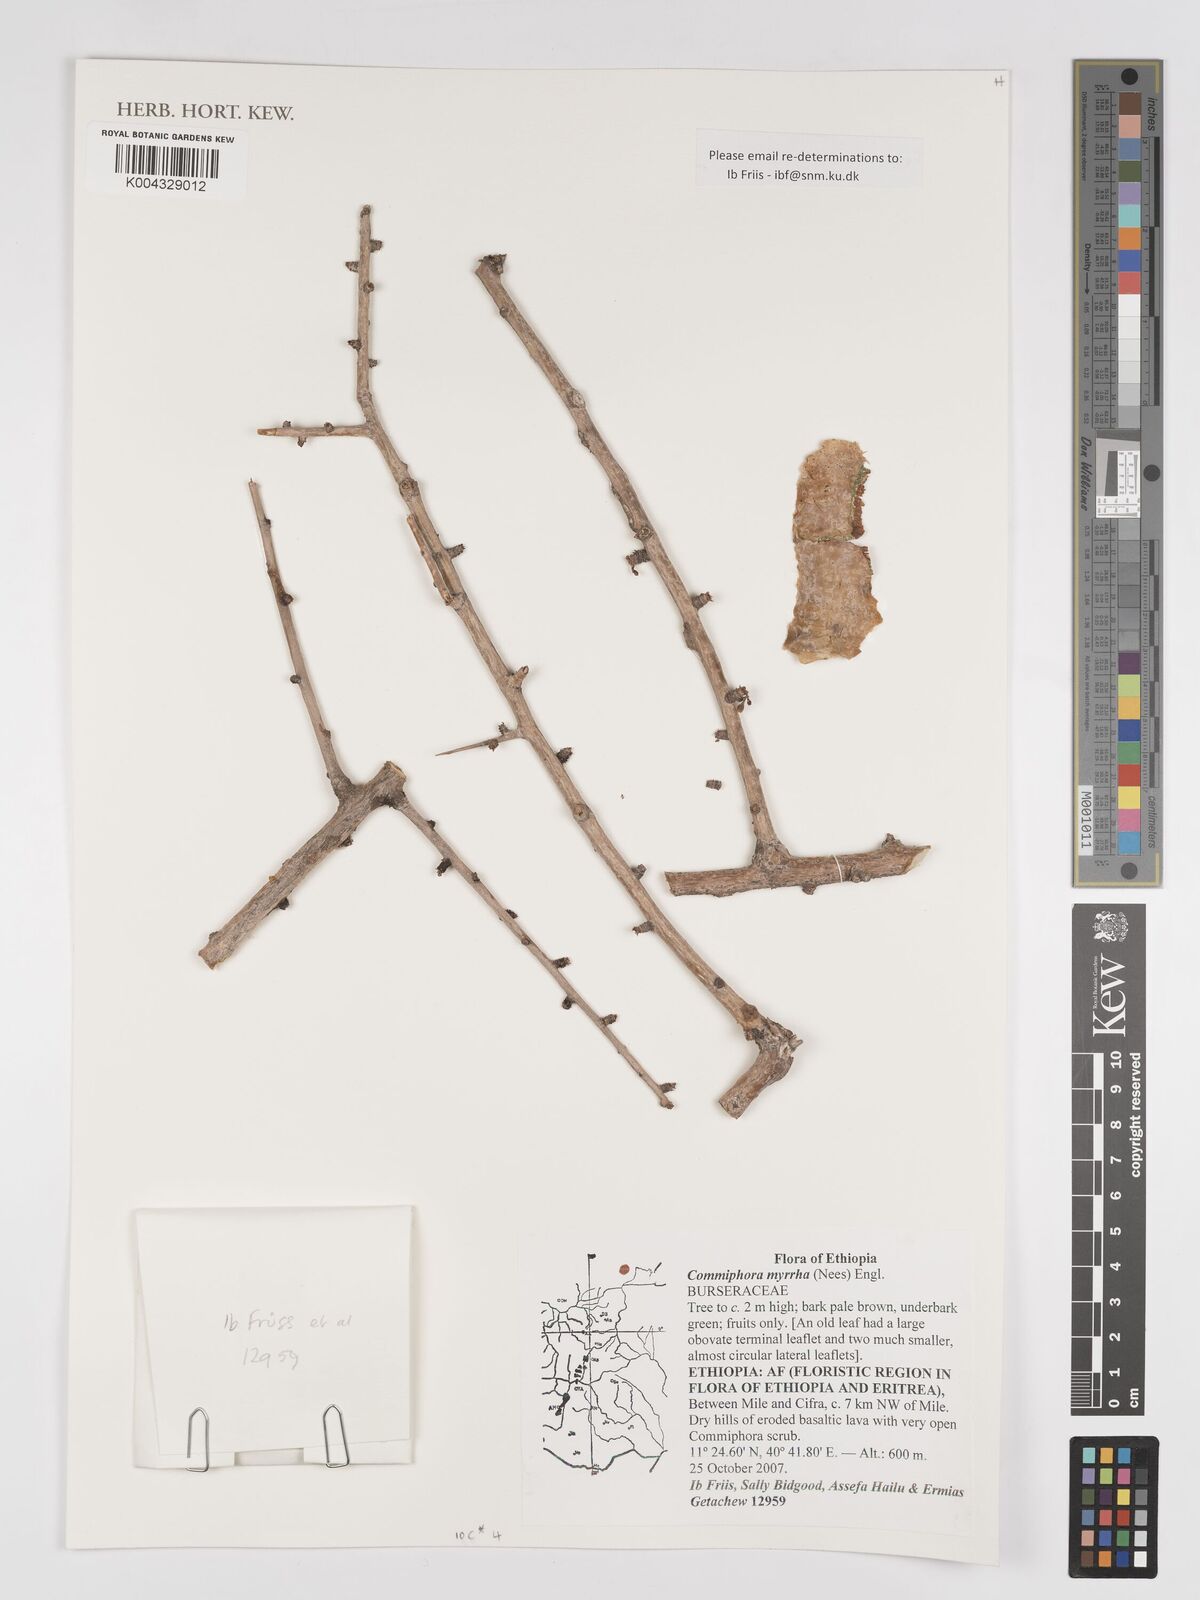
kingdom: Plantae
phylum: Tracheophyta
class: Magnoliopsida
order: Sapindales
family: Burseraceae
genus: Commiphora
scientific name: Commiphora myrrha
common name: African myrrh
